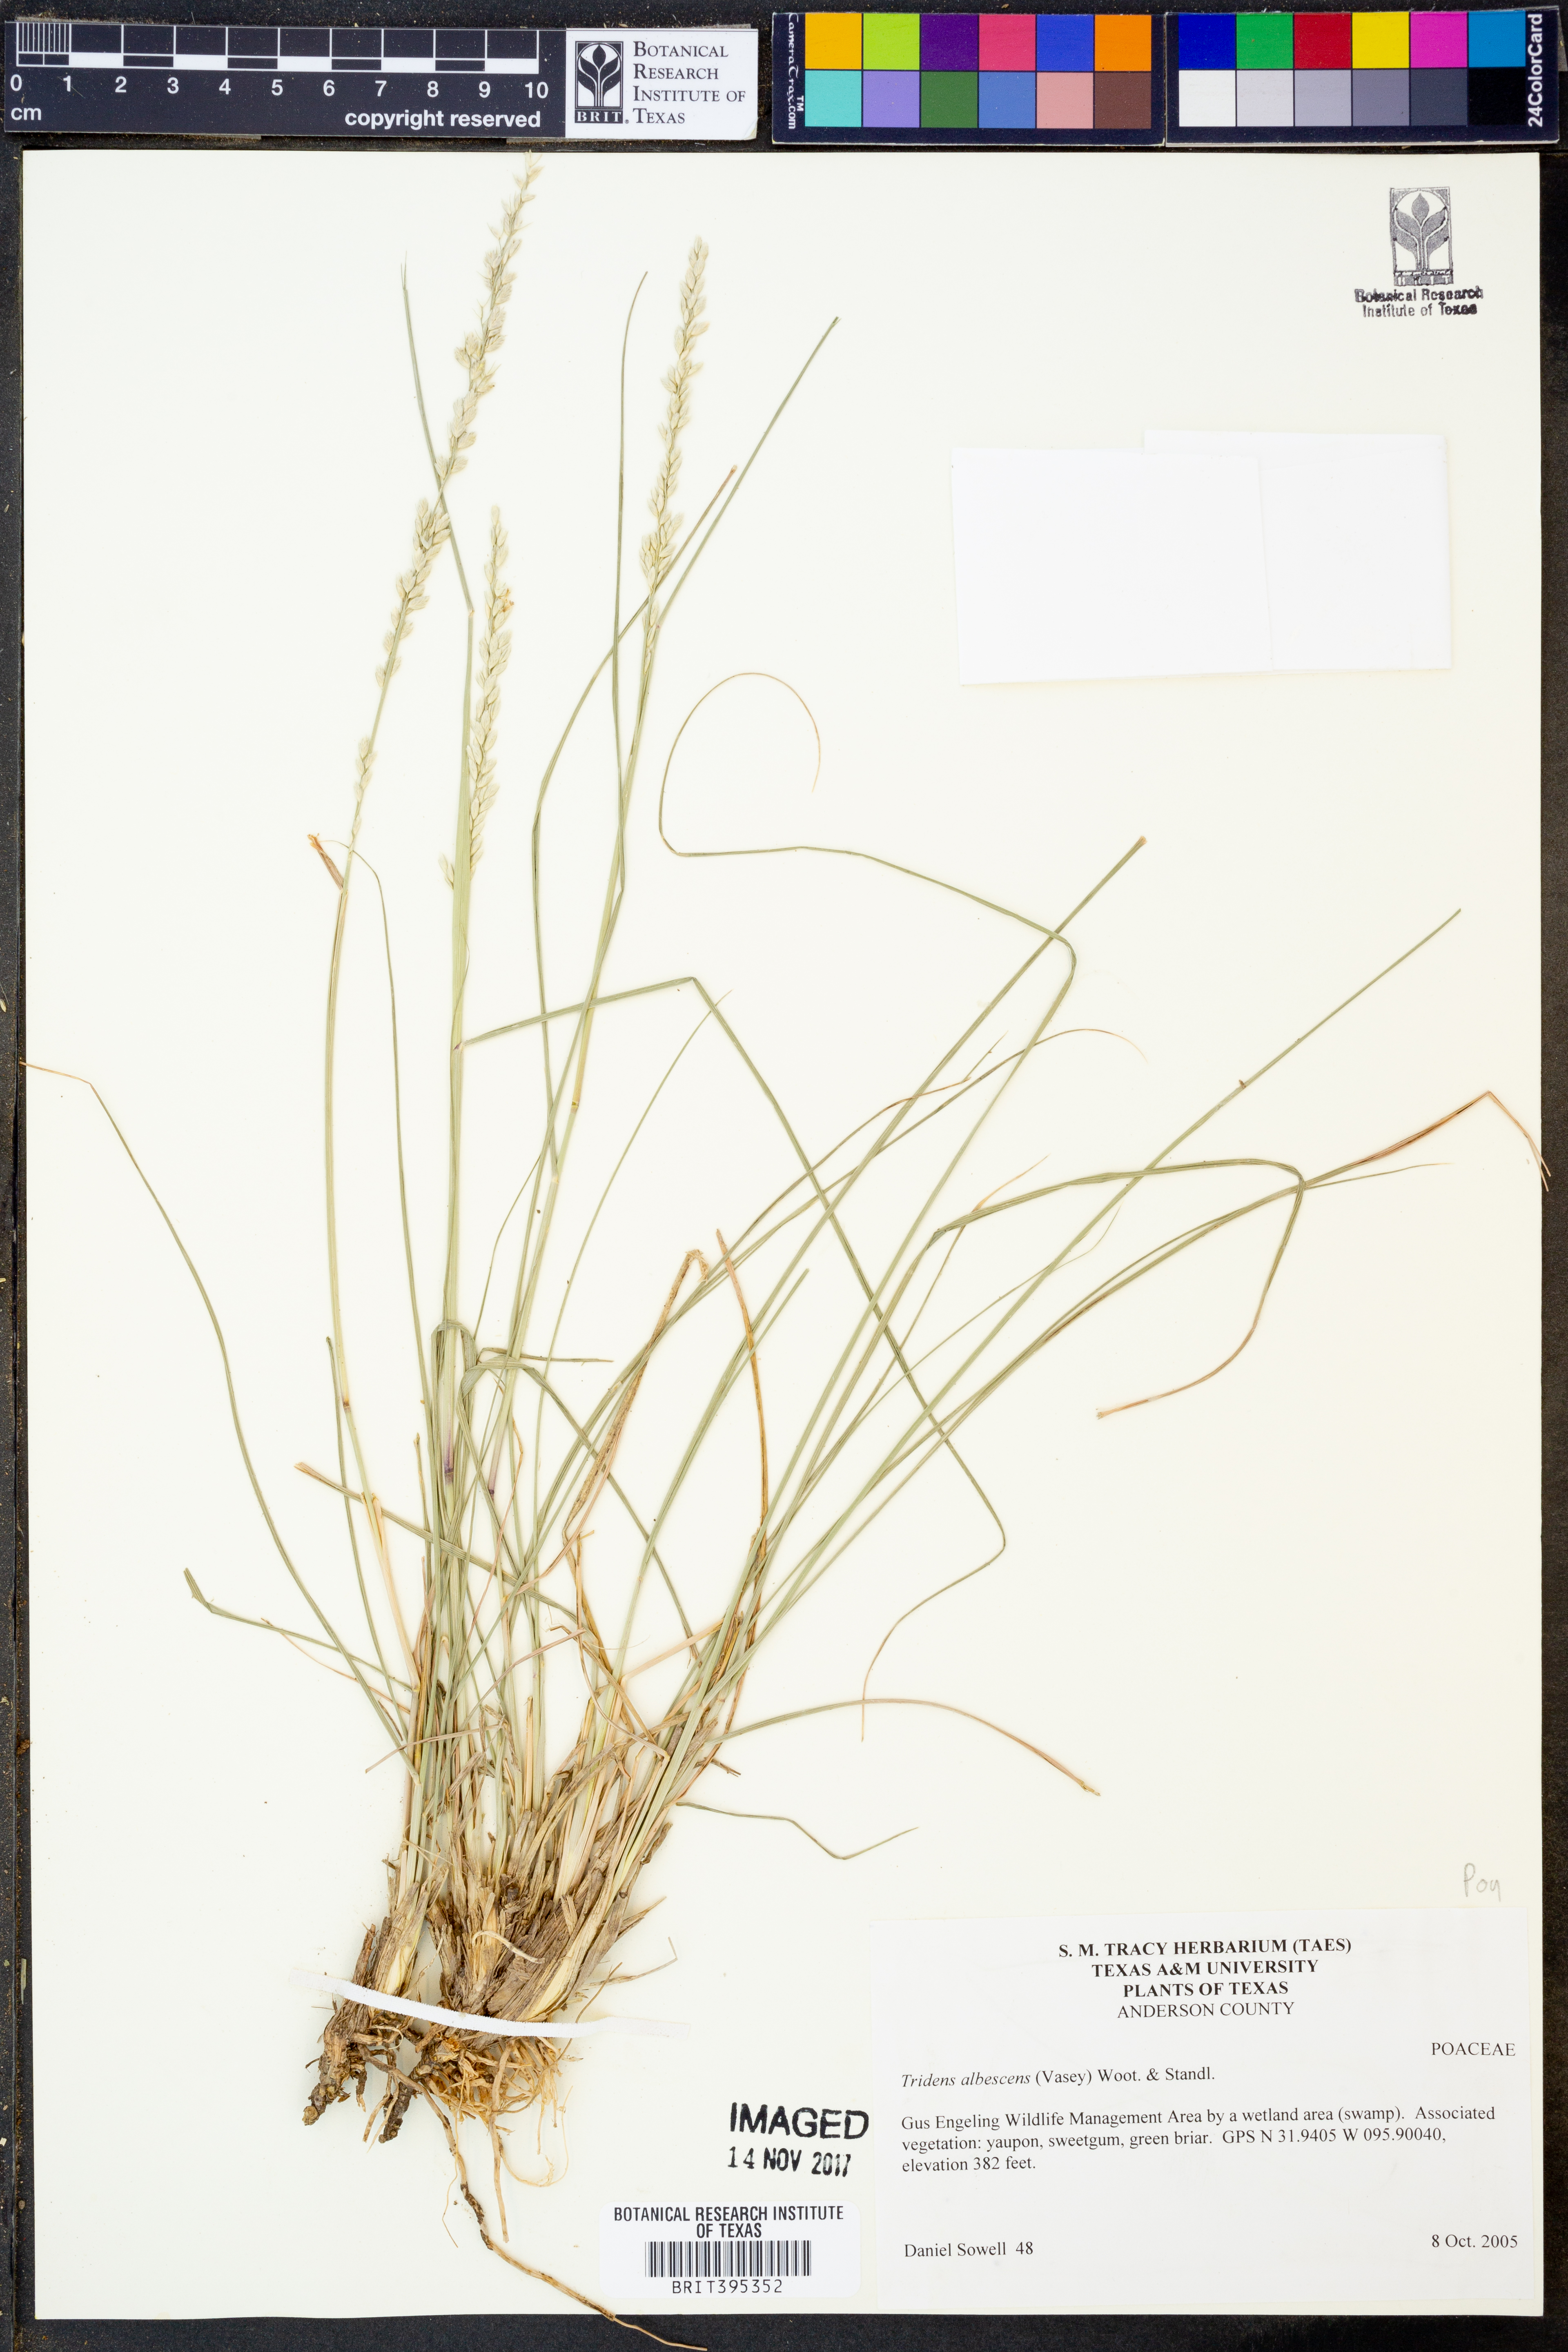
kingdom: Plantae
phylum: Tracheophyta
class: Liliopsida
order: Poales
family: Poaceae
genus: Tridens
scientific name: Tridens albescens
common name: White tridens
